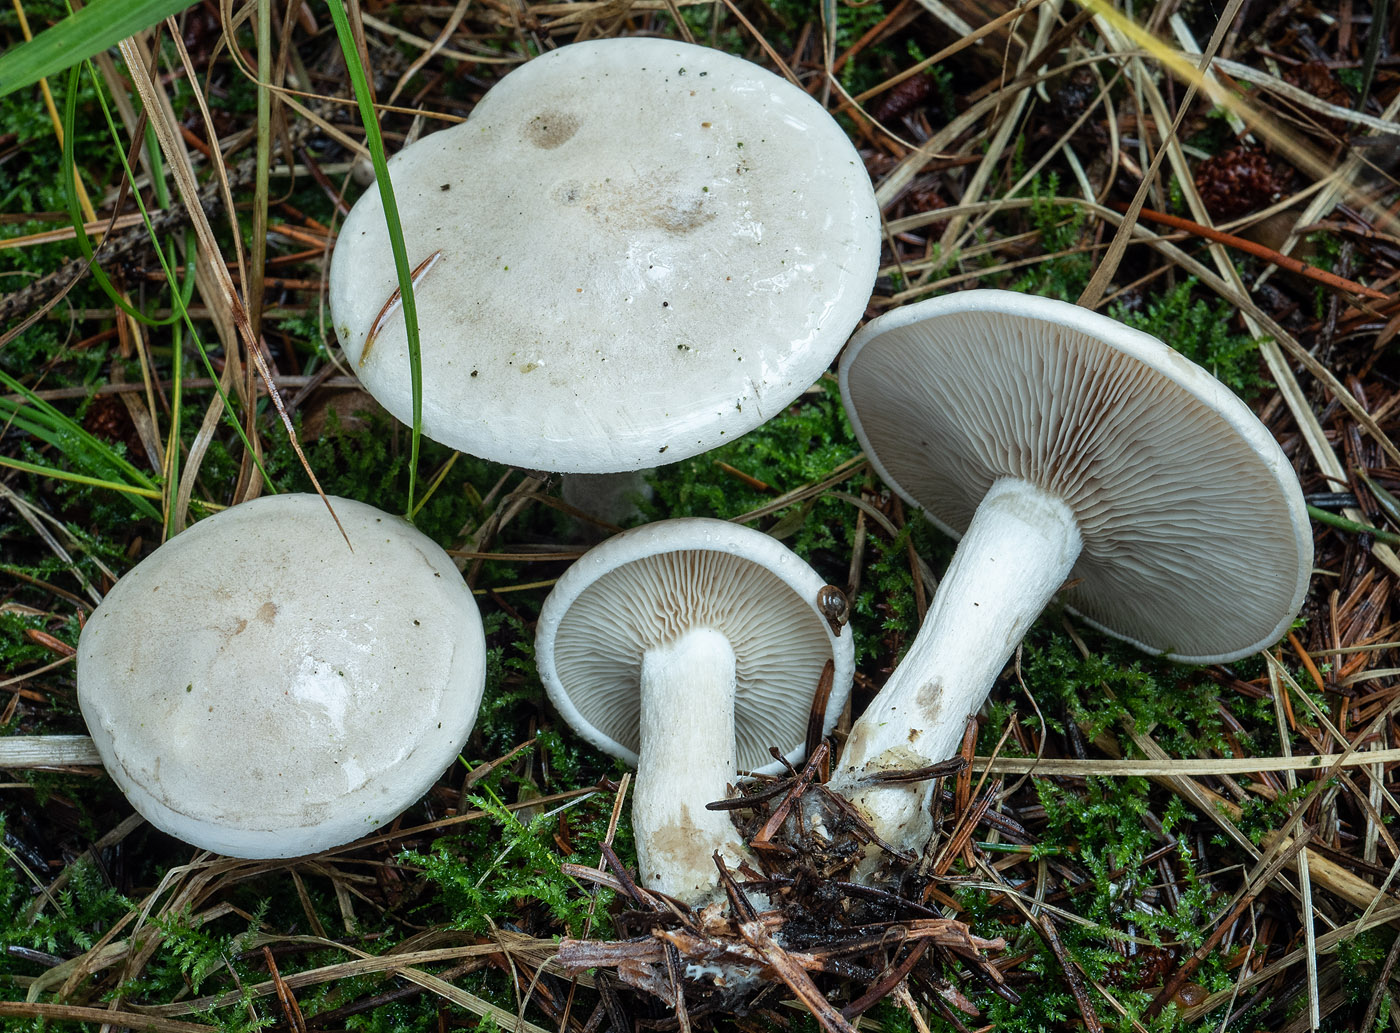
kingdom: Fungi
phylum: Basidiomycota
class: Agaricomycetes
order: Agaricales
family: Tricholomataceae
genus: Atractosporocybe
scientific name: Atractosporocybe inornata
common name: filtstokket tragthat
